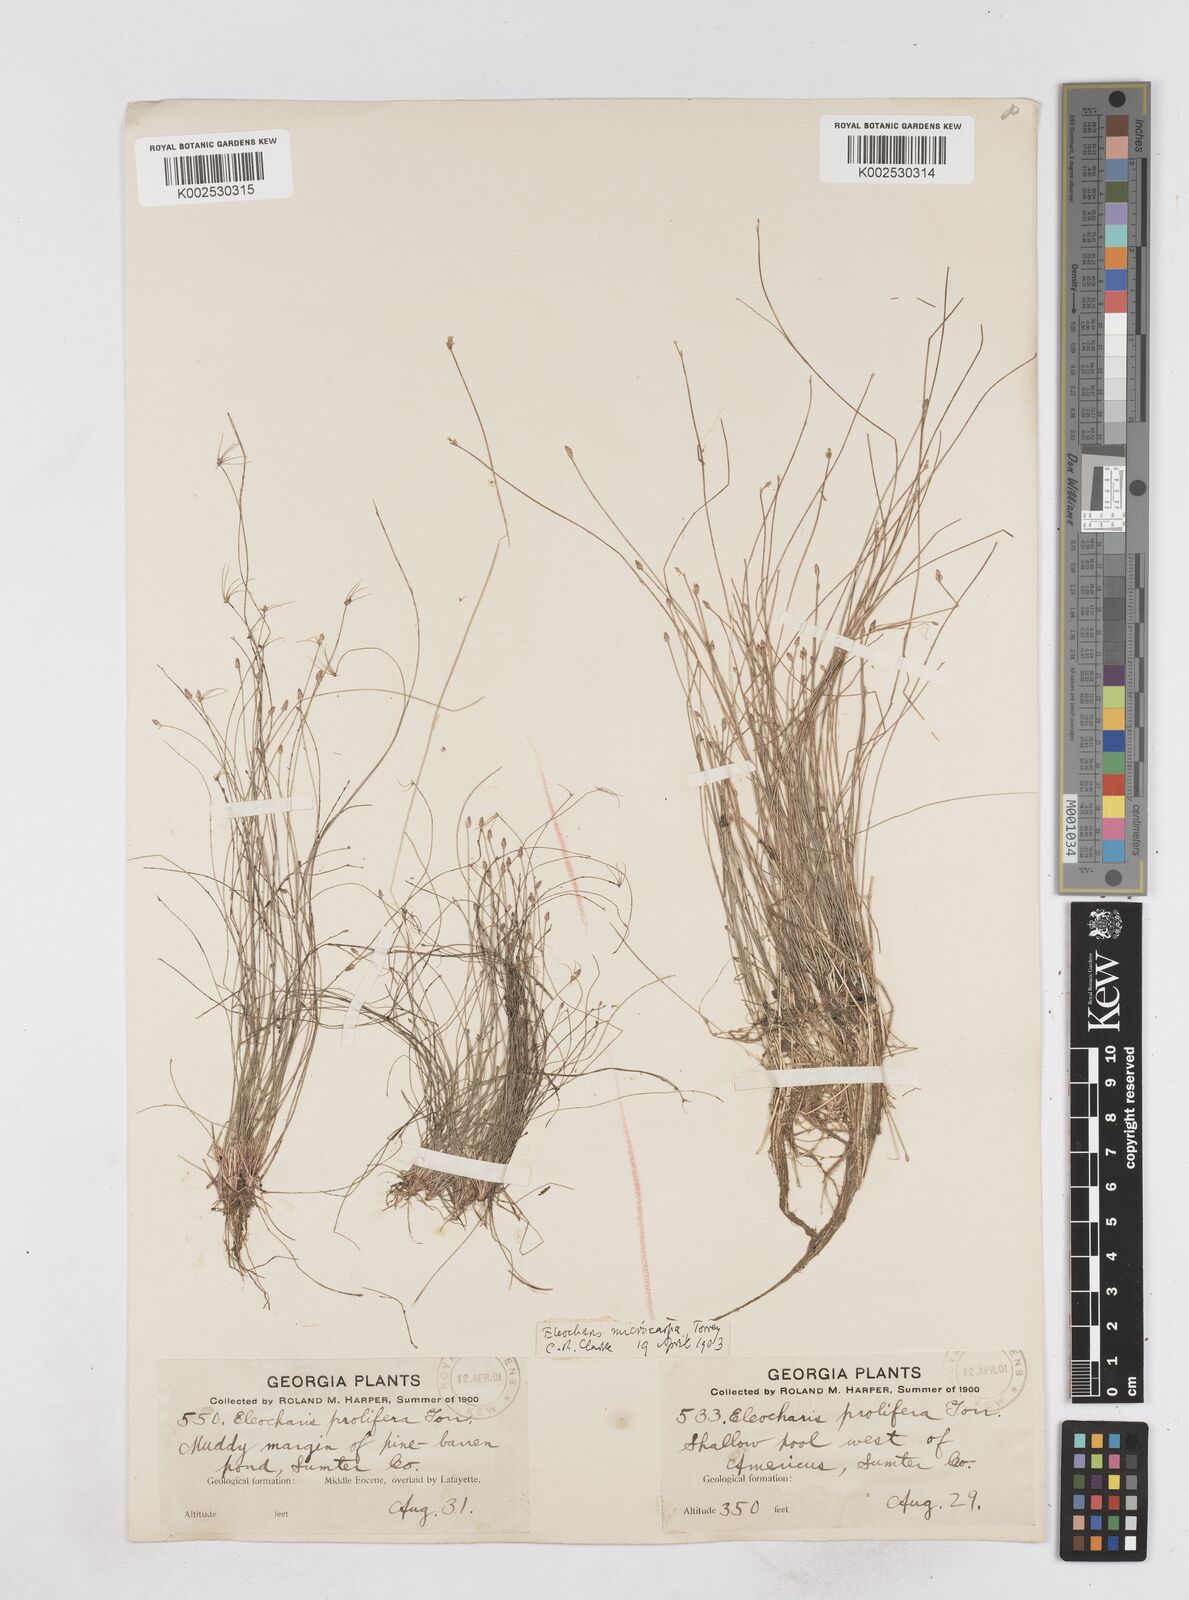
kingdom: Plantae
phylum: Tracheophyta
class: Liliopsida
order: Poales
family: Cyperaceae
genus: Eleocharis
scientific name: Eleocharis microcarpa
